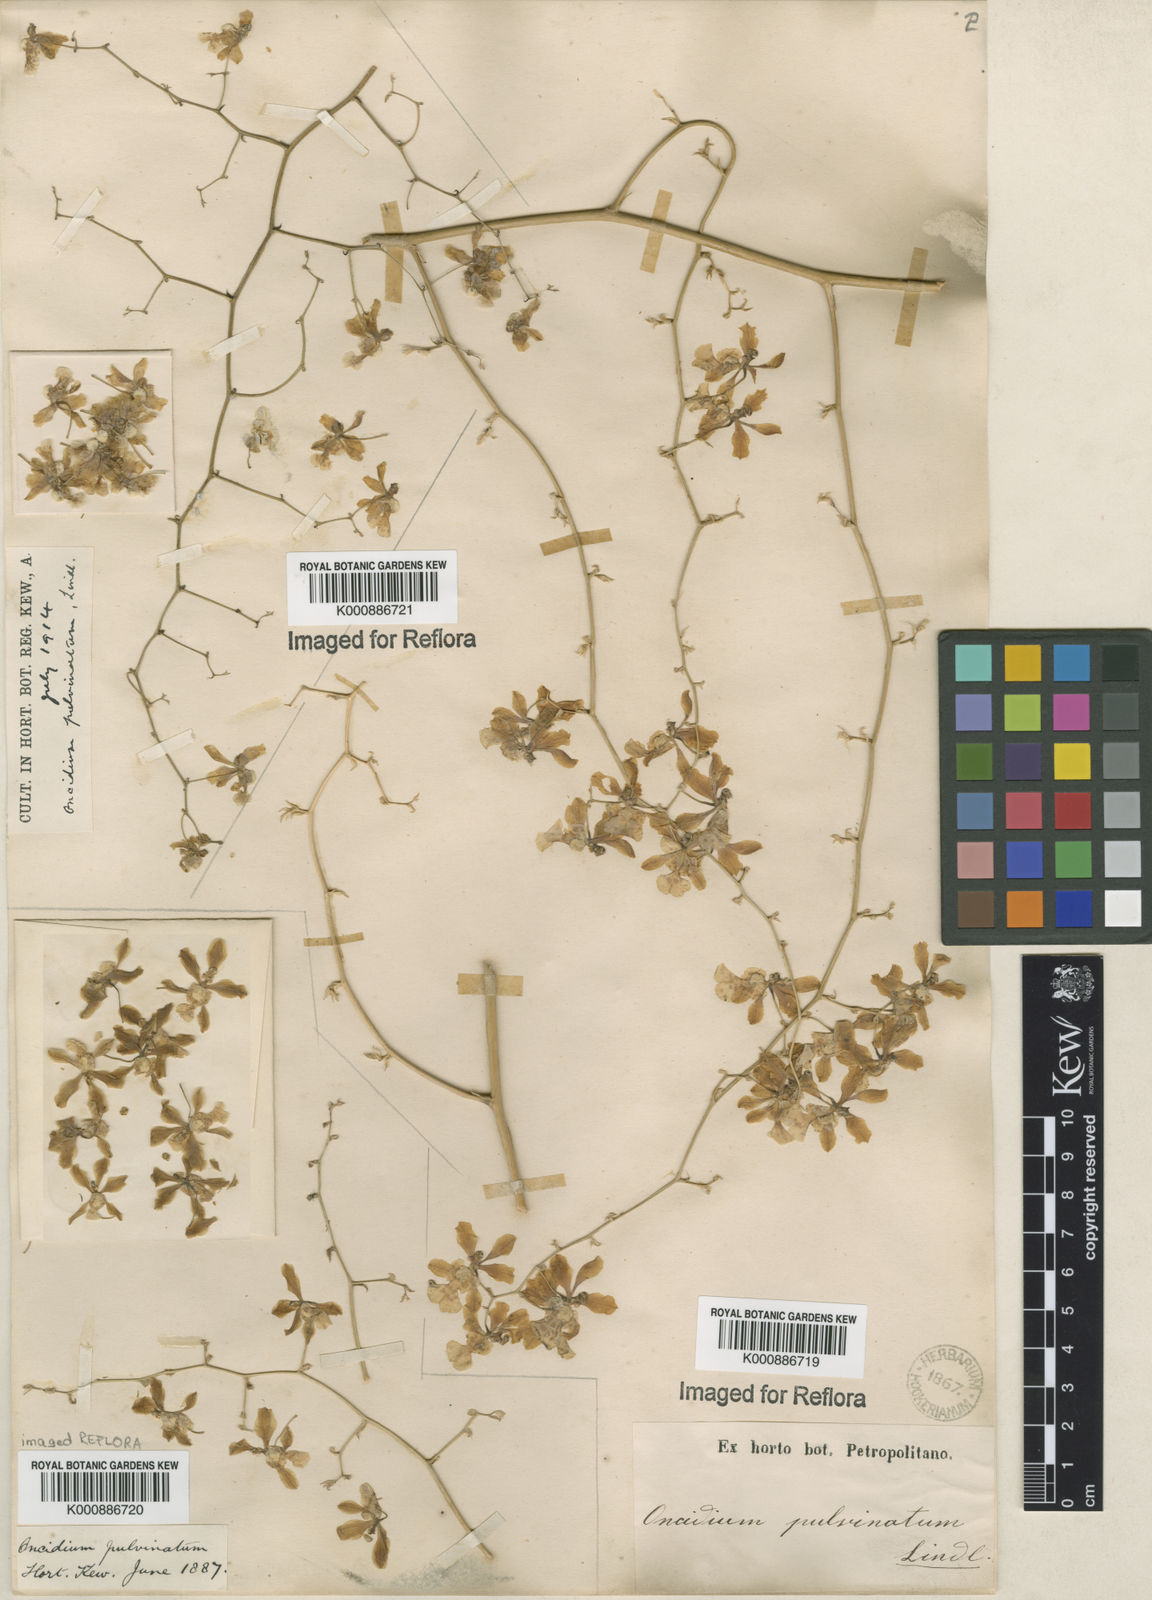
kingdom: Plantae
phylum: Tracheophyta
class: Liliopsida
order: Asparagales
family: Orchidaceae
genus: Grandiphyllum
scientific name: Grandiphyllum divaricatum
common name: Mule-ear orchid
